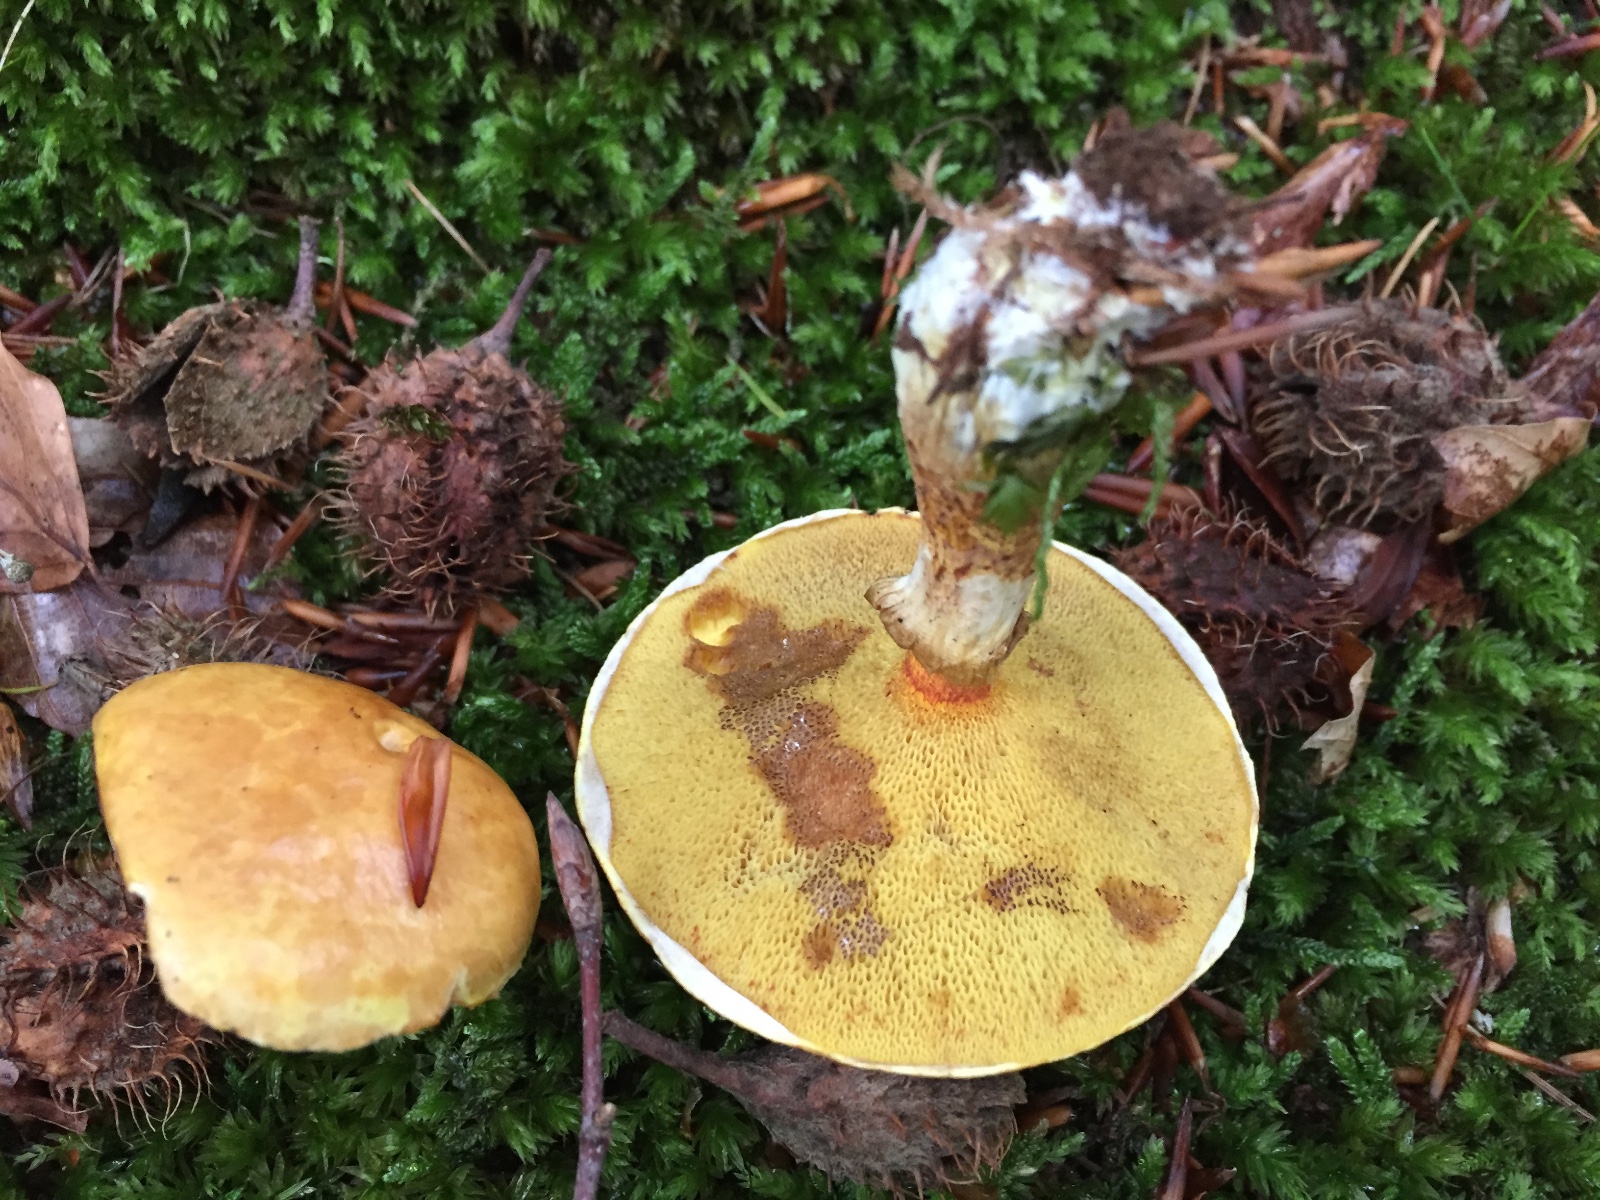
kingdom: Fungi
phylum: Basidiomycota
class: Agaricomycetes
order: Boletales
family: Suillaceae
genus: Suillus
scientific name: Suillus grevillei
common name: lærke-slimrørhat
